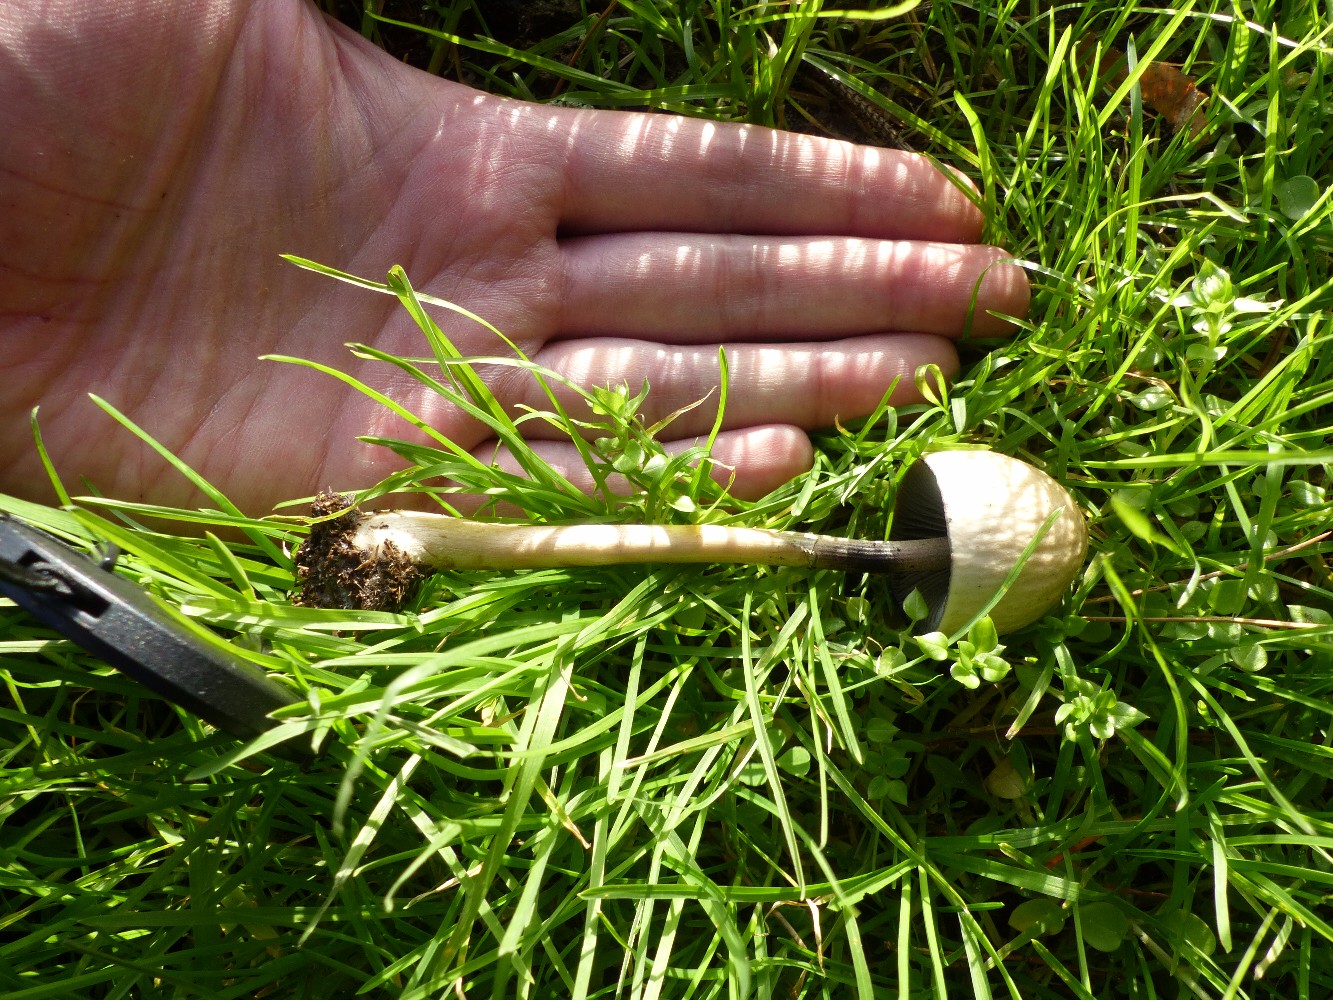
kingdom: Fungi
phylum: Basidiomycota
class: Agaricomycetes
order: Agaricales
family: Bolbitiaceae
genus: Panaeolus
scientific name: Panaeolus semiovatus
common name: ring-glanshat
